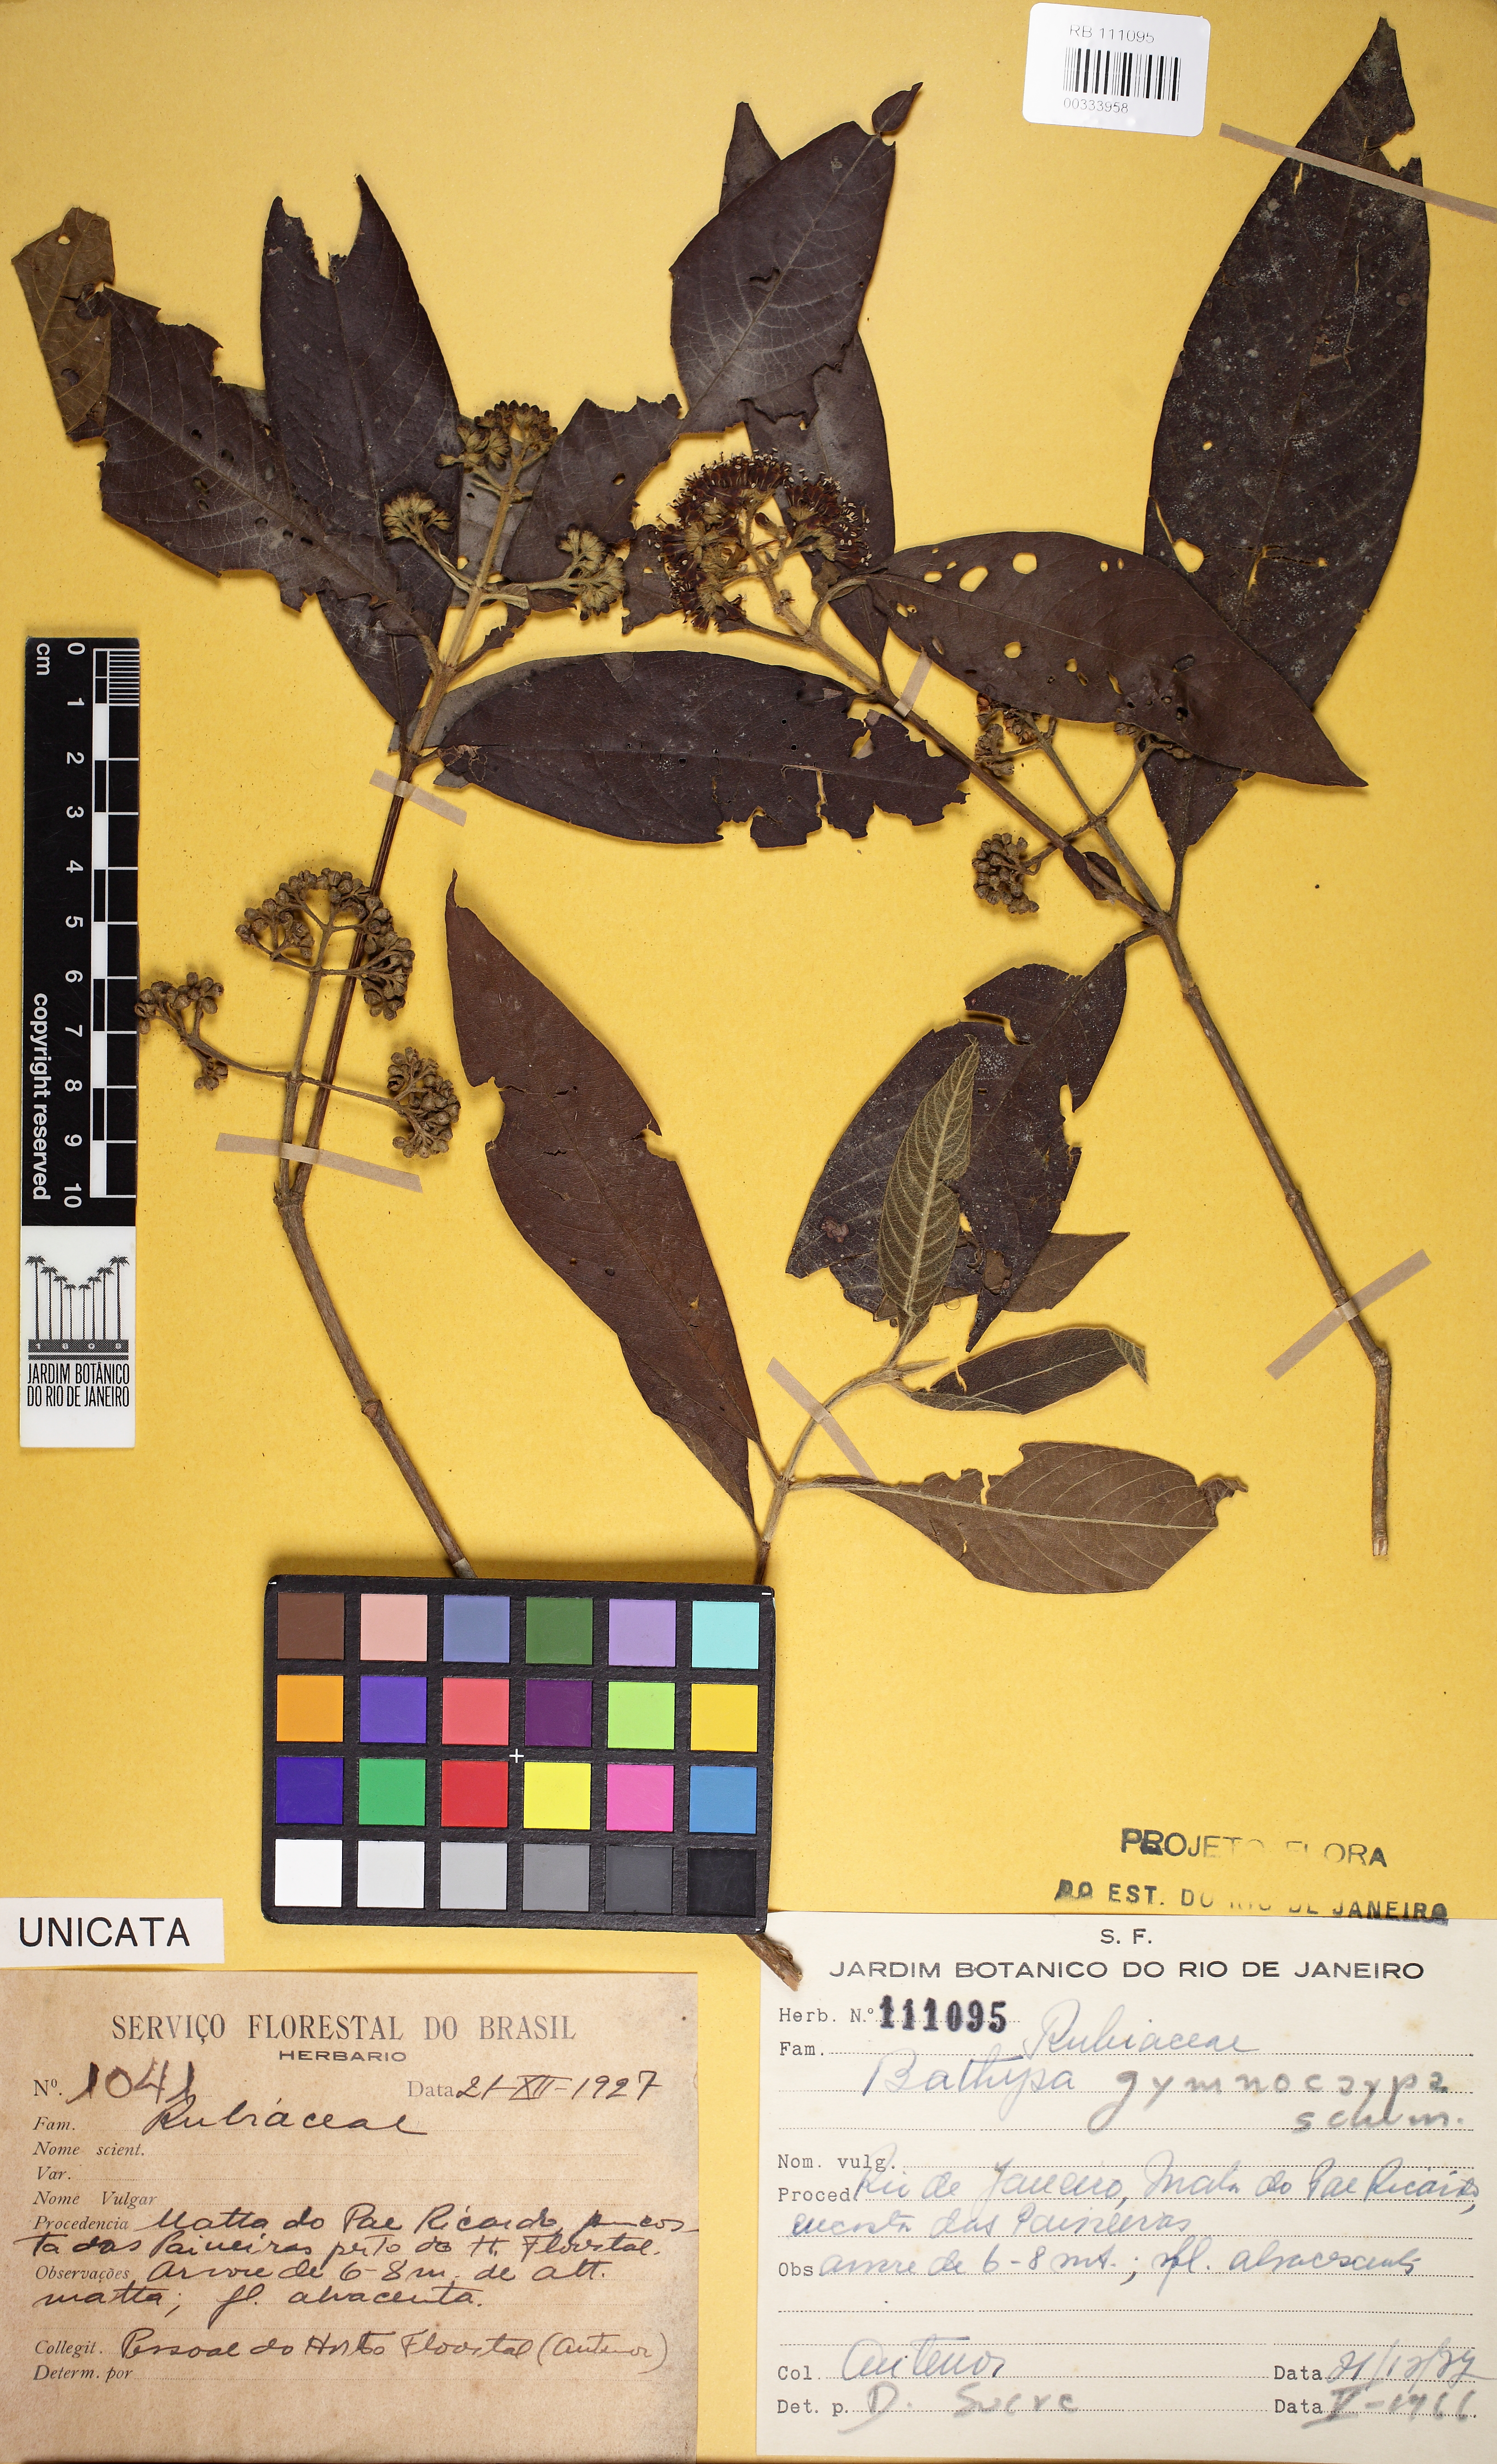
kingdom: Plantae
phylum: Tracheophyta
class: Magnoliopsida
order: Gentianales
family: Rubiaceae
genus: Bathysa
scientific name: Bathysa gymnocarpa
